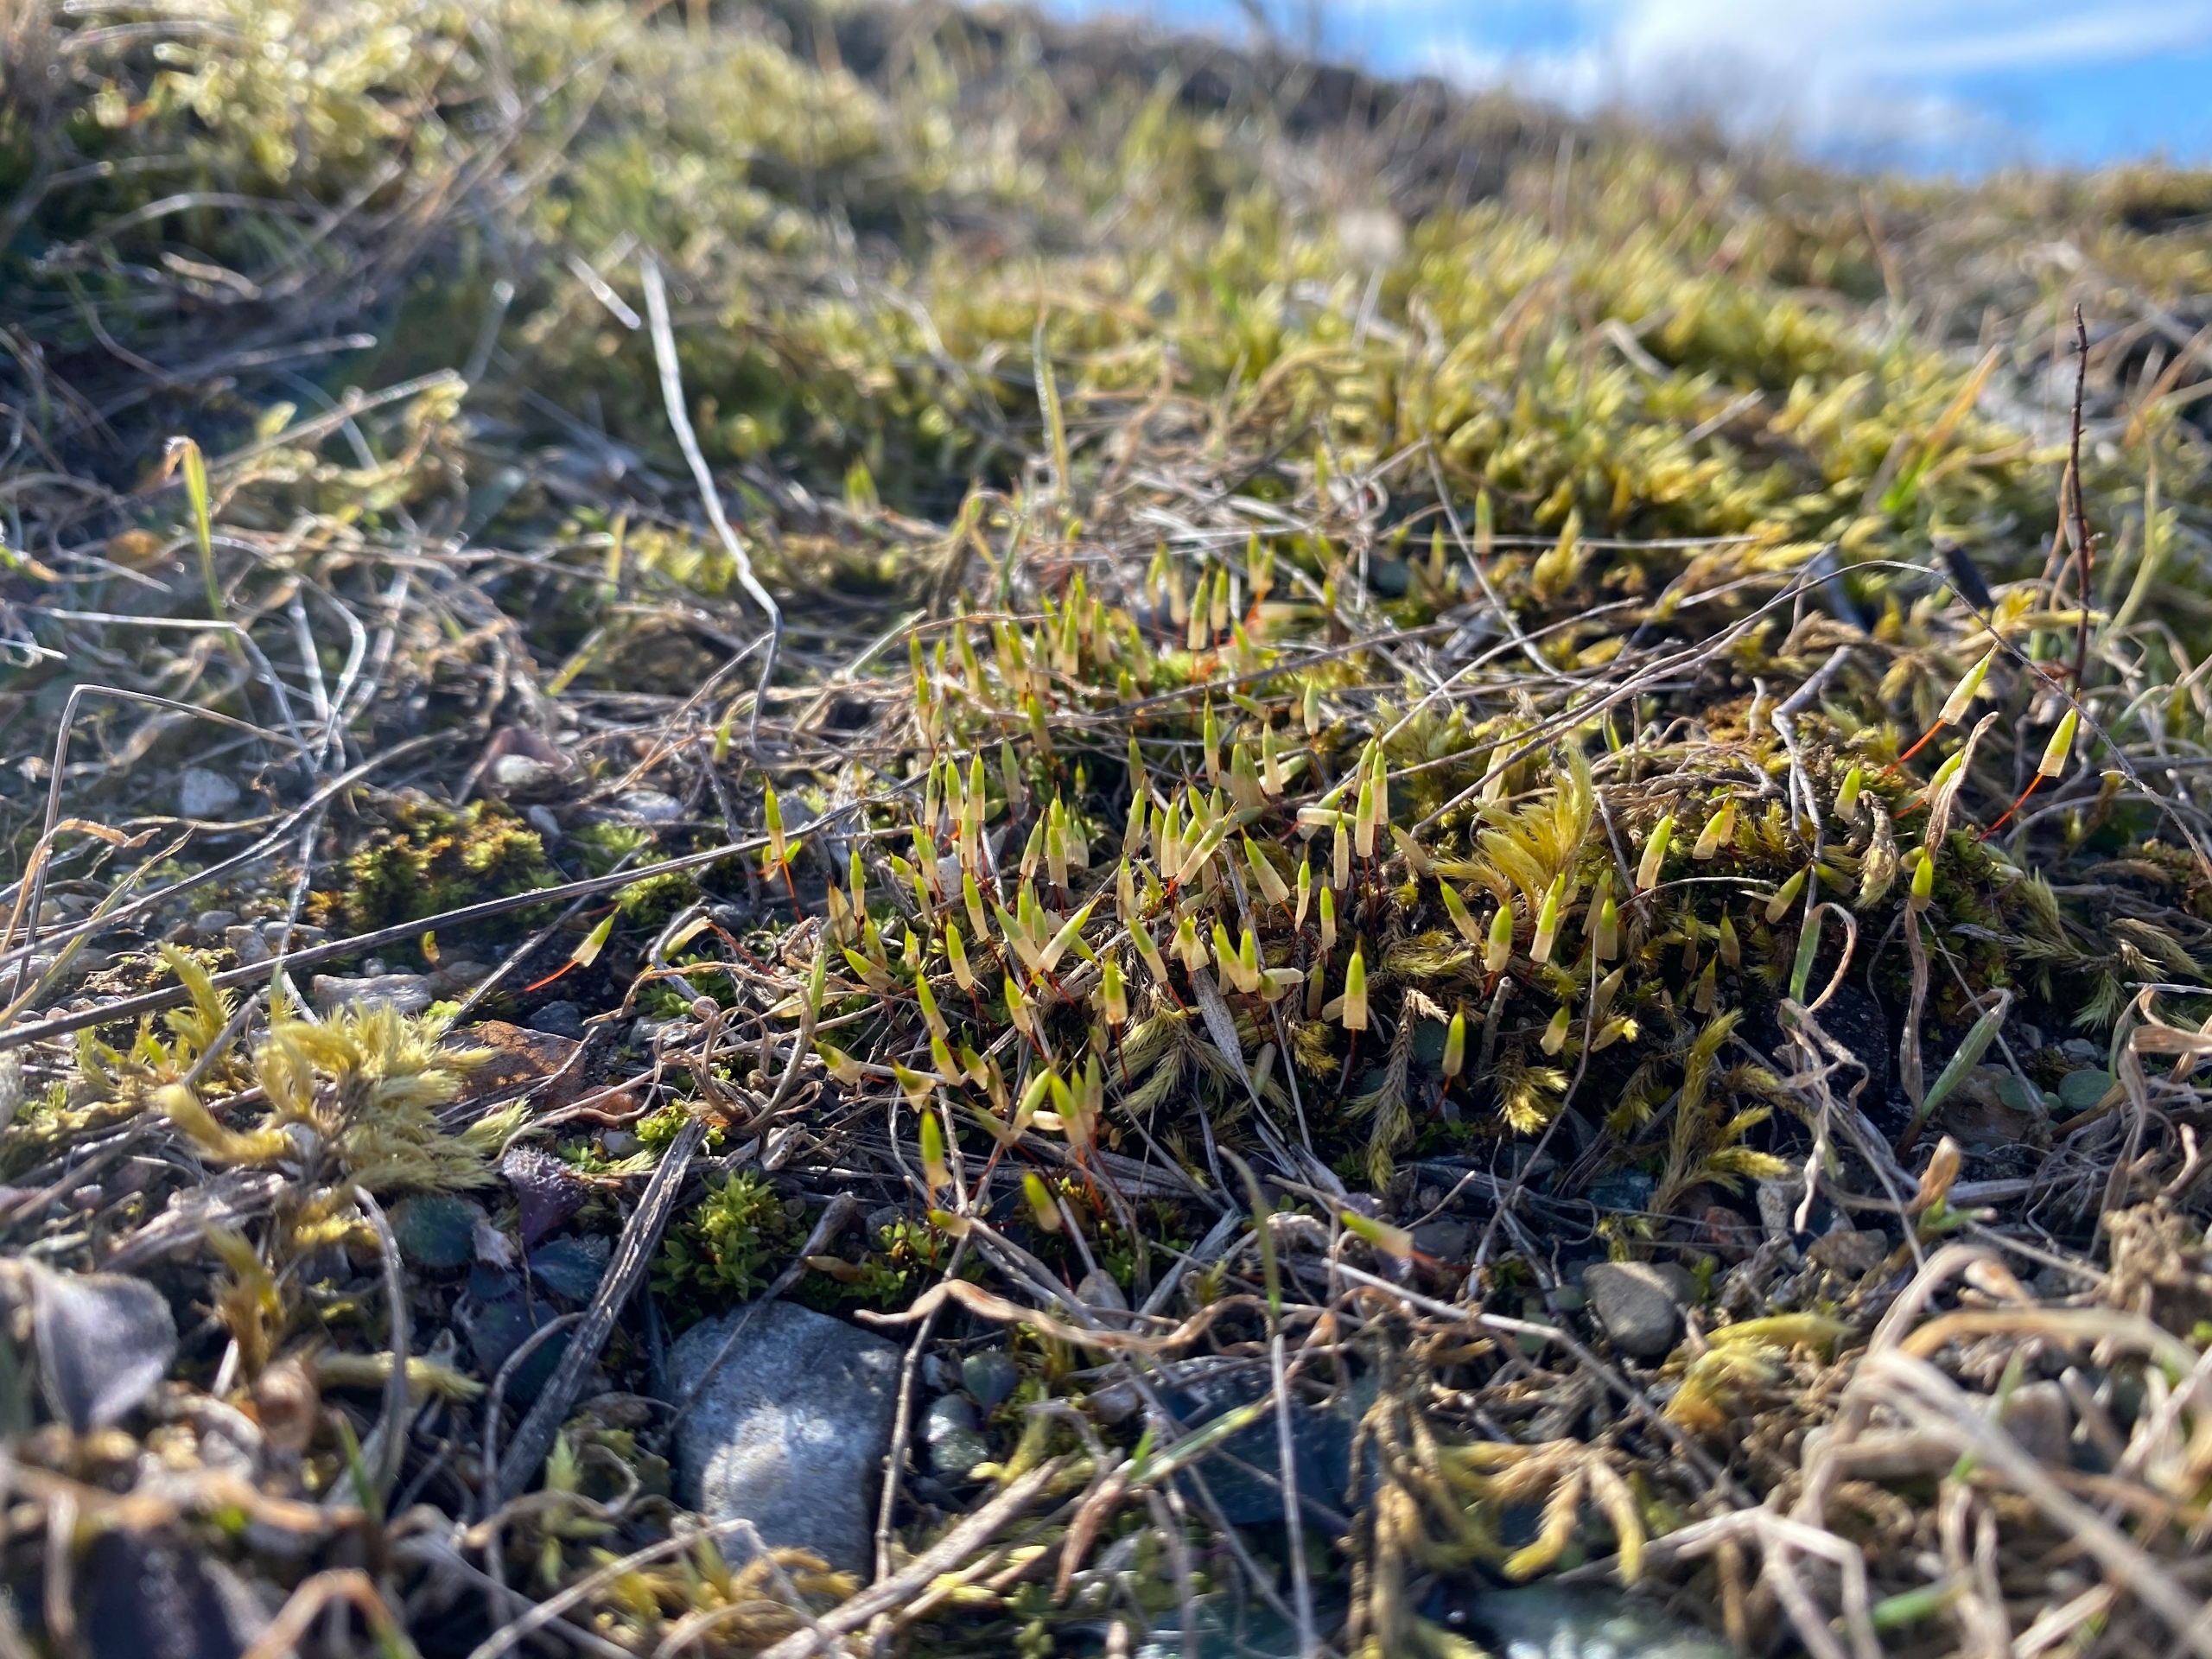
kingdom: Plantae
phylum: Bryophyta
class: Bryopsida
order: Encalyptales
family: Encalyptaceae
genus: Encalypta
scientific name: Encalypta vulgaris
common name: Almindelig klokkehætte
